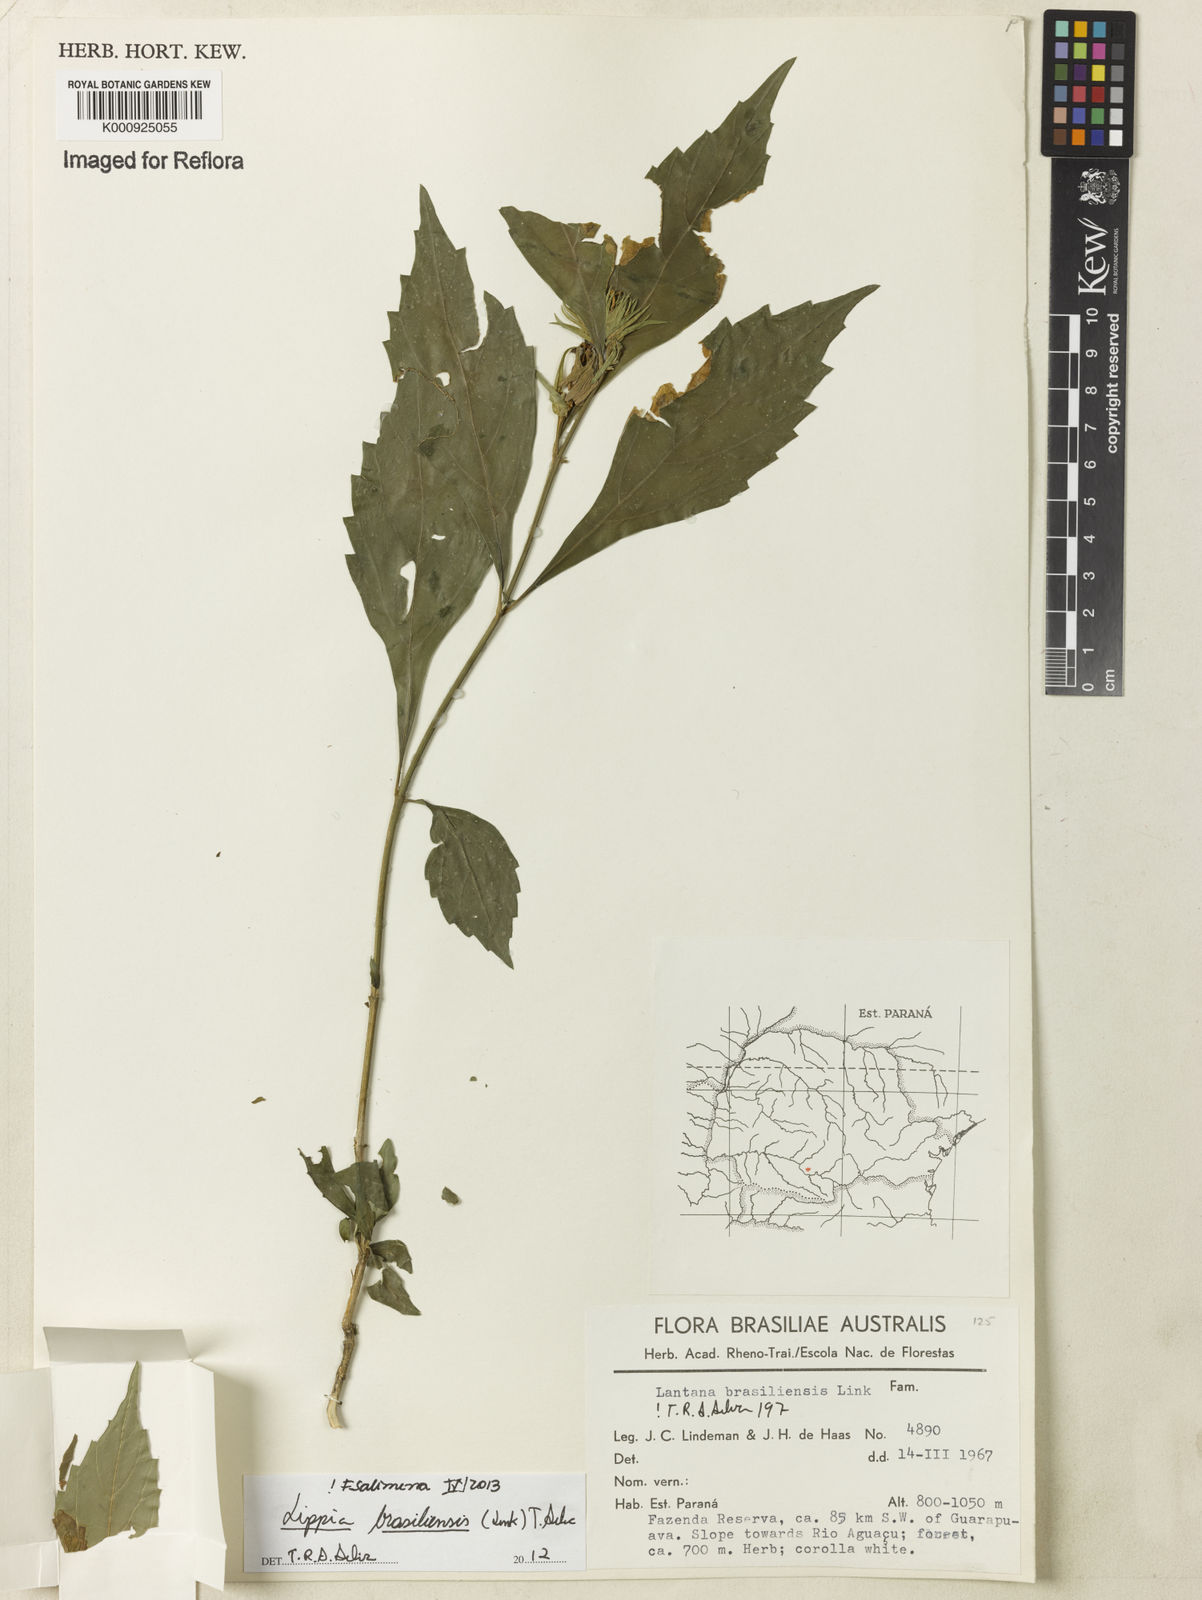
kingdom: Plantae
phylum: Tracheophyta
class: Magnoliopsida
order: Lamiales
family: Verbenaceae
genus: Lippia
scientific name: Lippia brasiliensis
